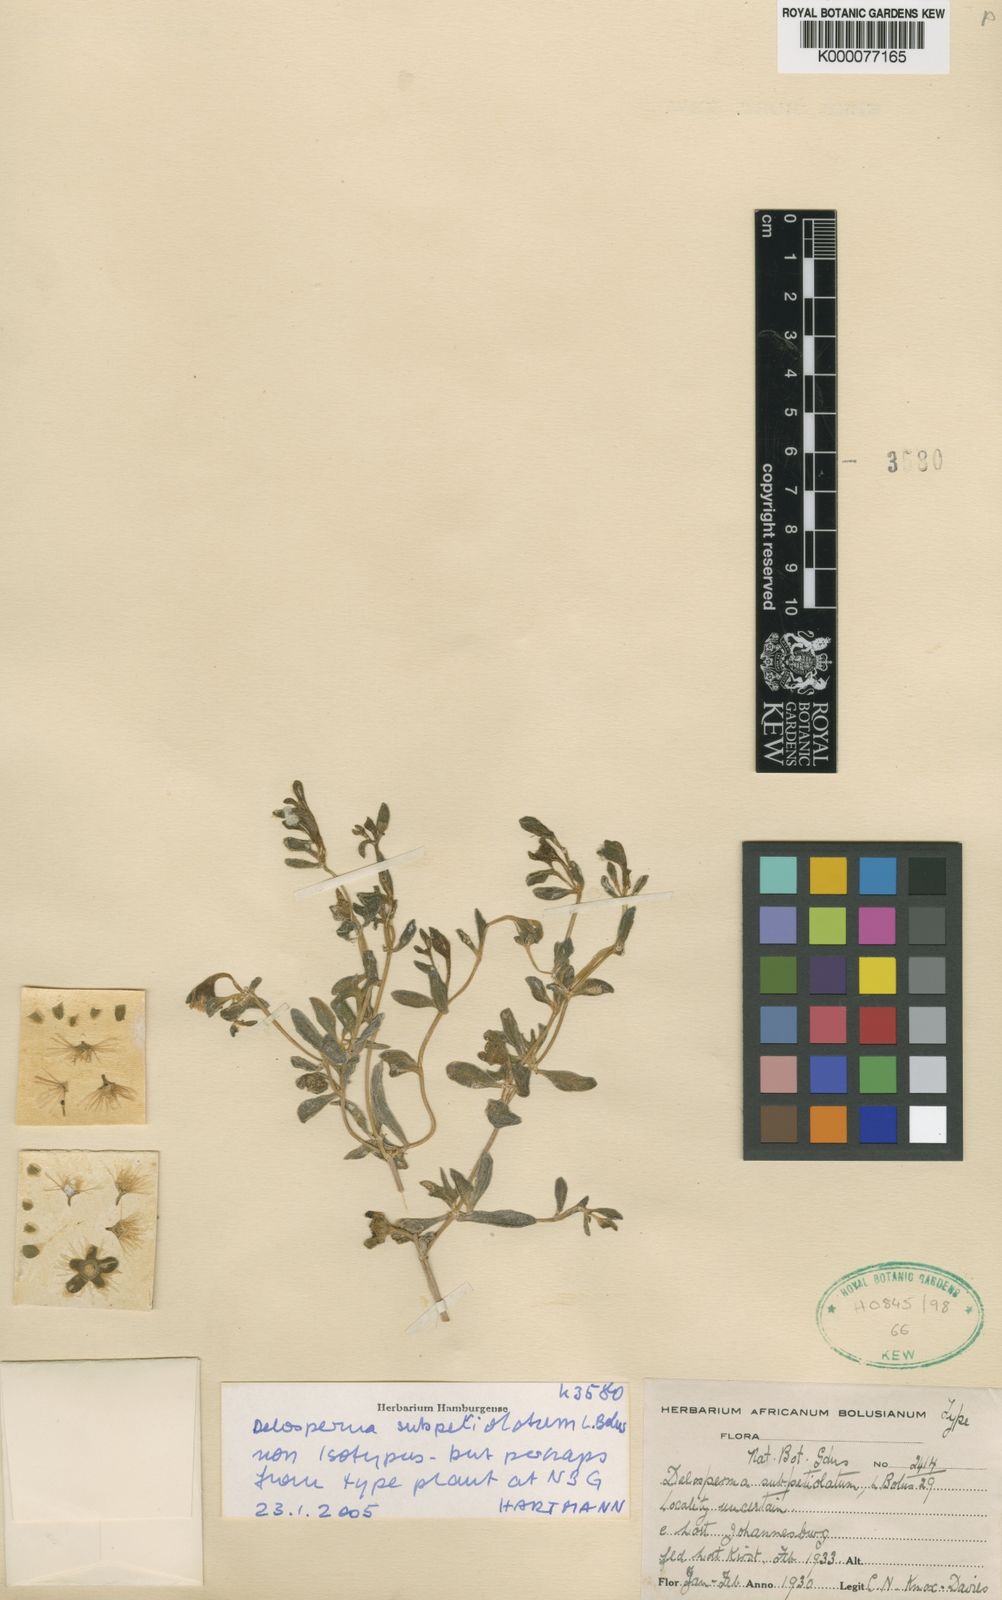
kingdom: Plantae
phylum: Tracheophyta
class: Magnoliopsida
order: Caryophyllales
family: Aizoaceae
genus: Delosperma
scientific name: Delosperma subpetiolatum
